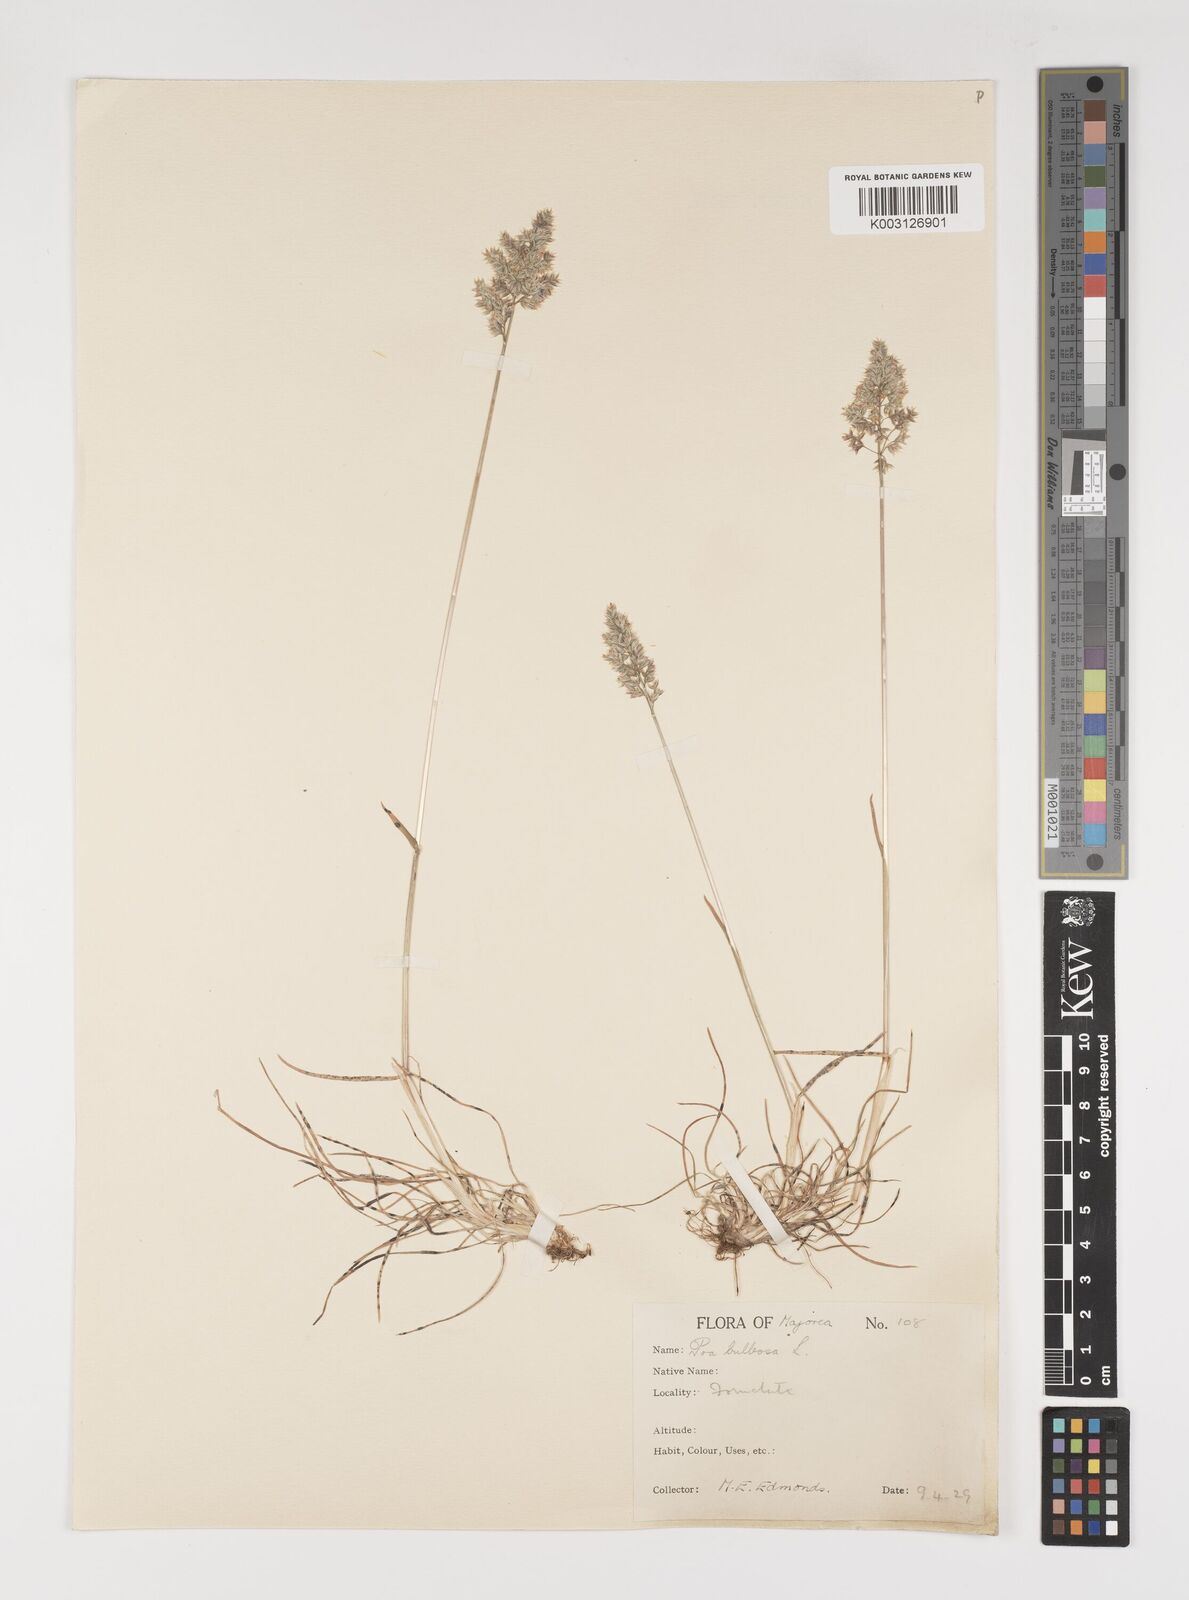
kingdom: Plantae
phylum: Tracheophyta
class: Liliopsida
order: Poales
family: Poaceae
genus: Poa
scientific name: Poa bulbosa
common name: Bulbous bluegrass
